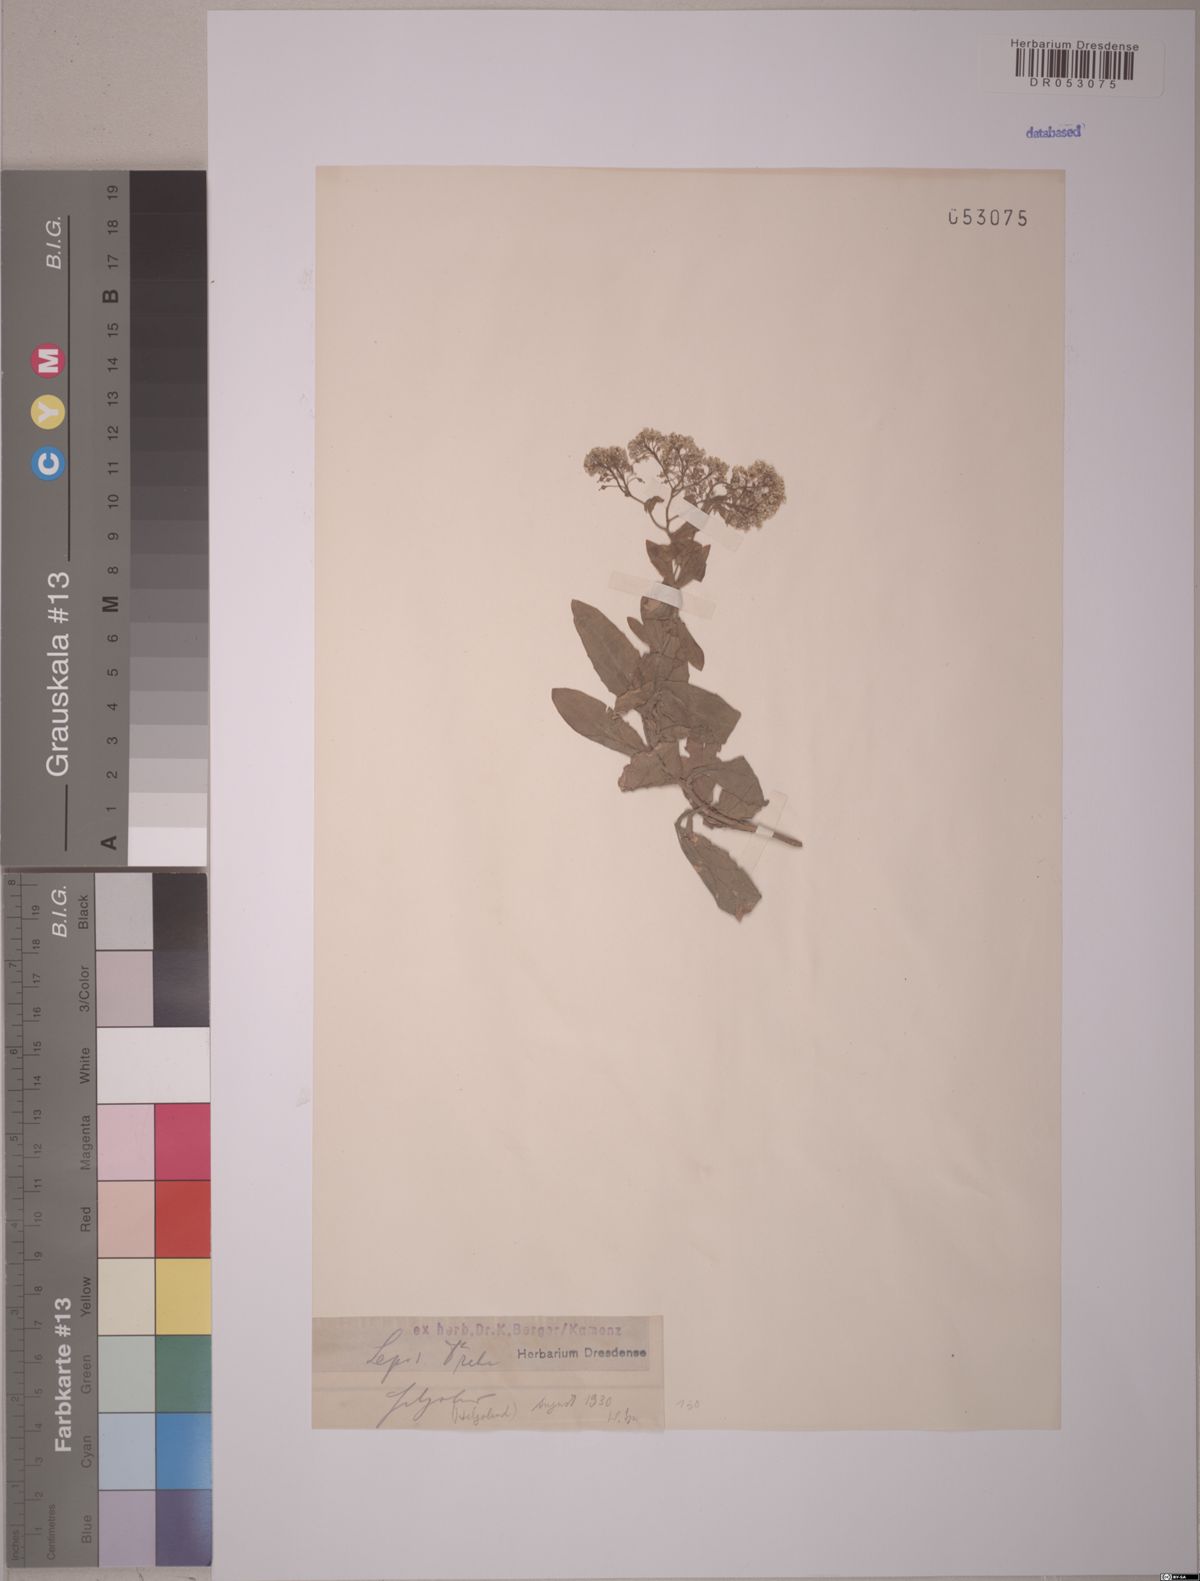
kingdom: Plantae
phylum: Tracheophyta
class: Magnoliopsida
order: Brassicales
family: Brassicaceae
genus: Lepidium
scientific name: Lepidium draba
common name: Hoary cress
